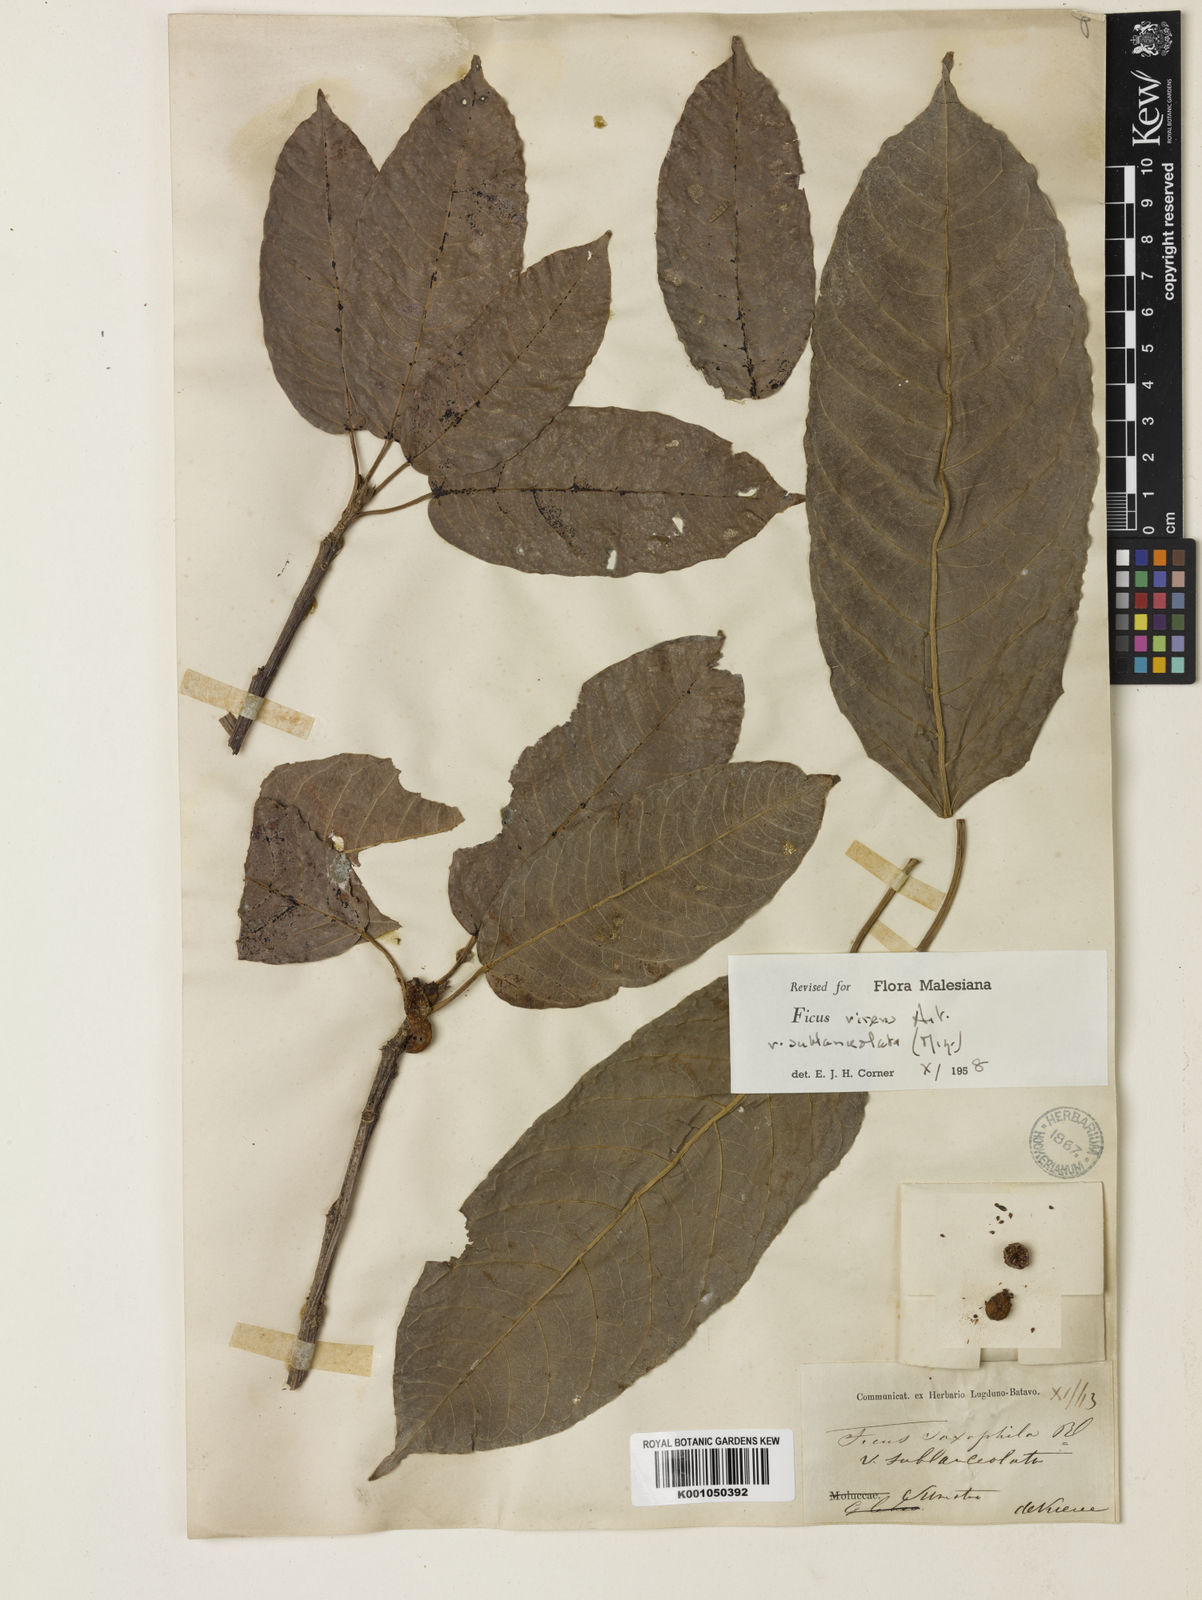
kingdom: Plantae
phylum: Tracheophyta
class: Magnoliopsida
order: Rosales
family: Moraceae
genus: Ficus
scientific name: Ficus virens
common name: Spotted fig
